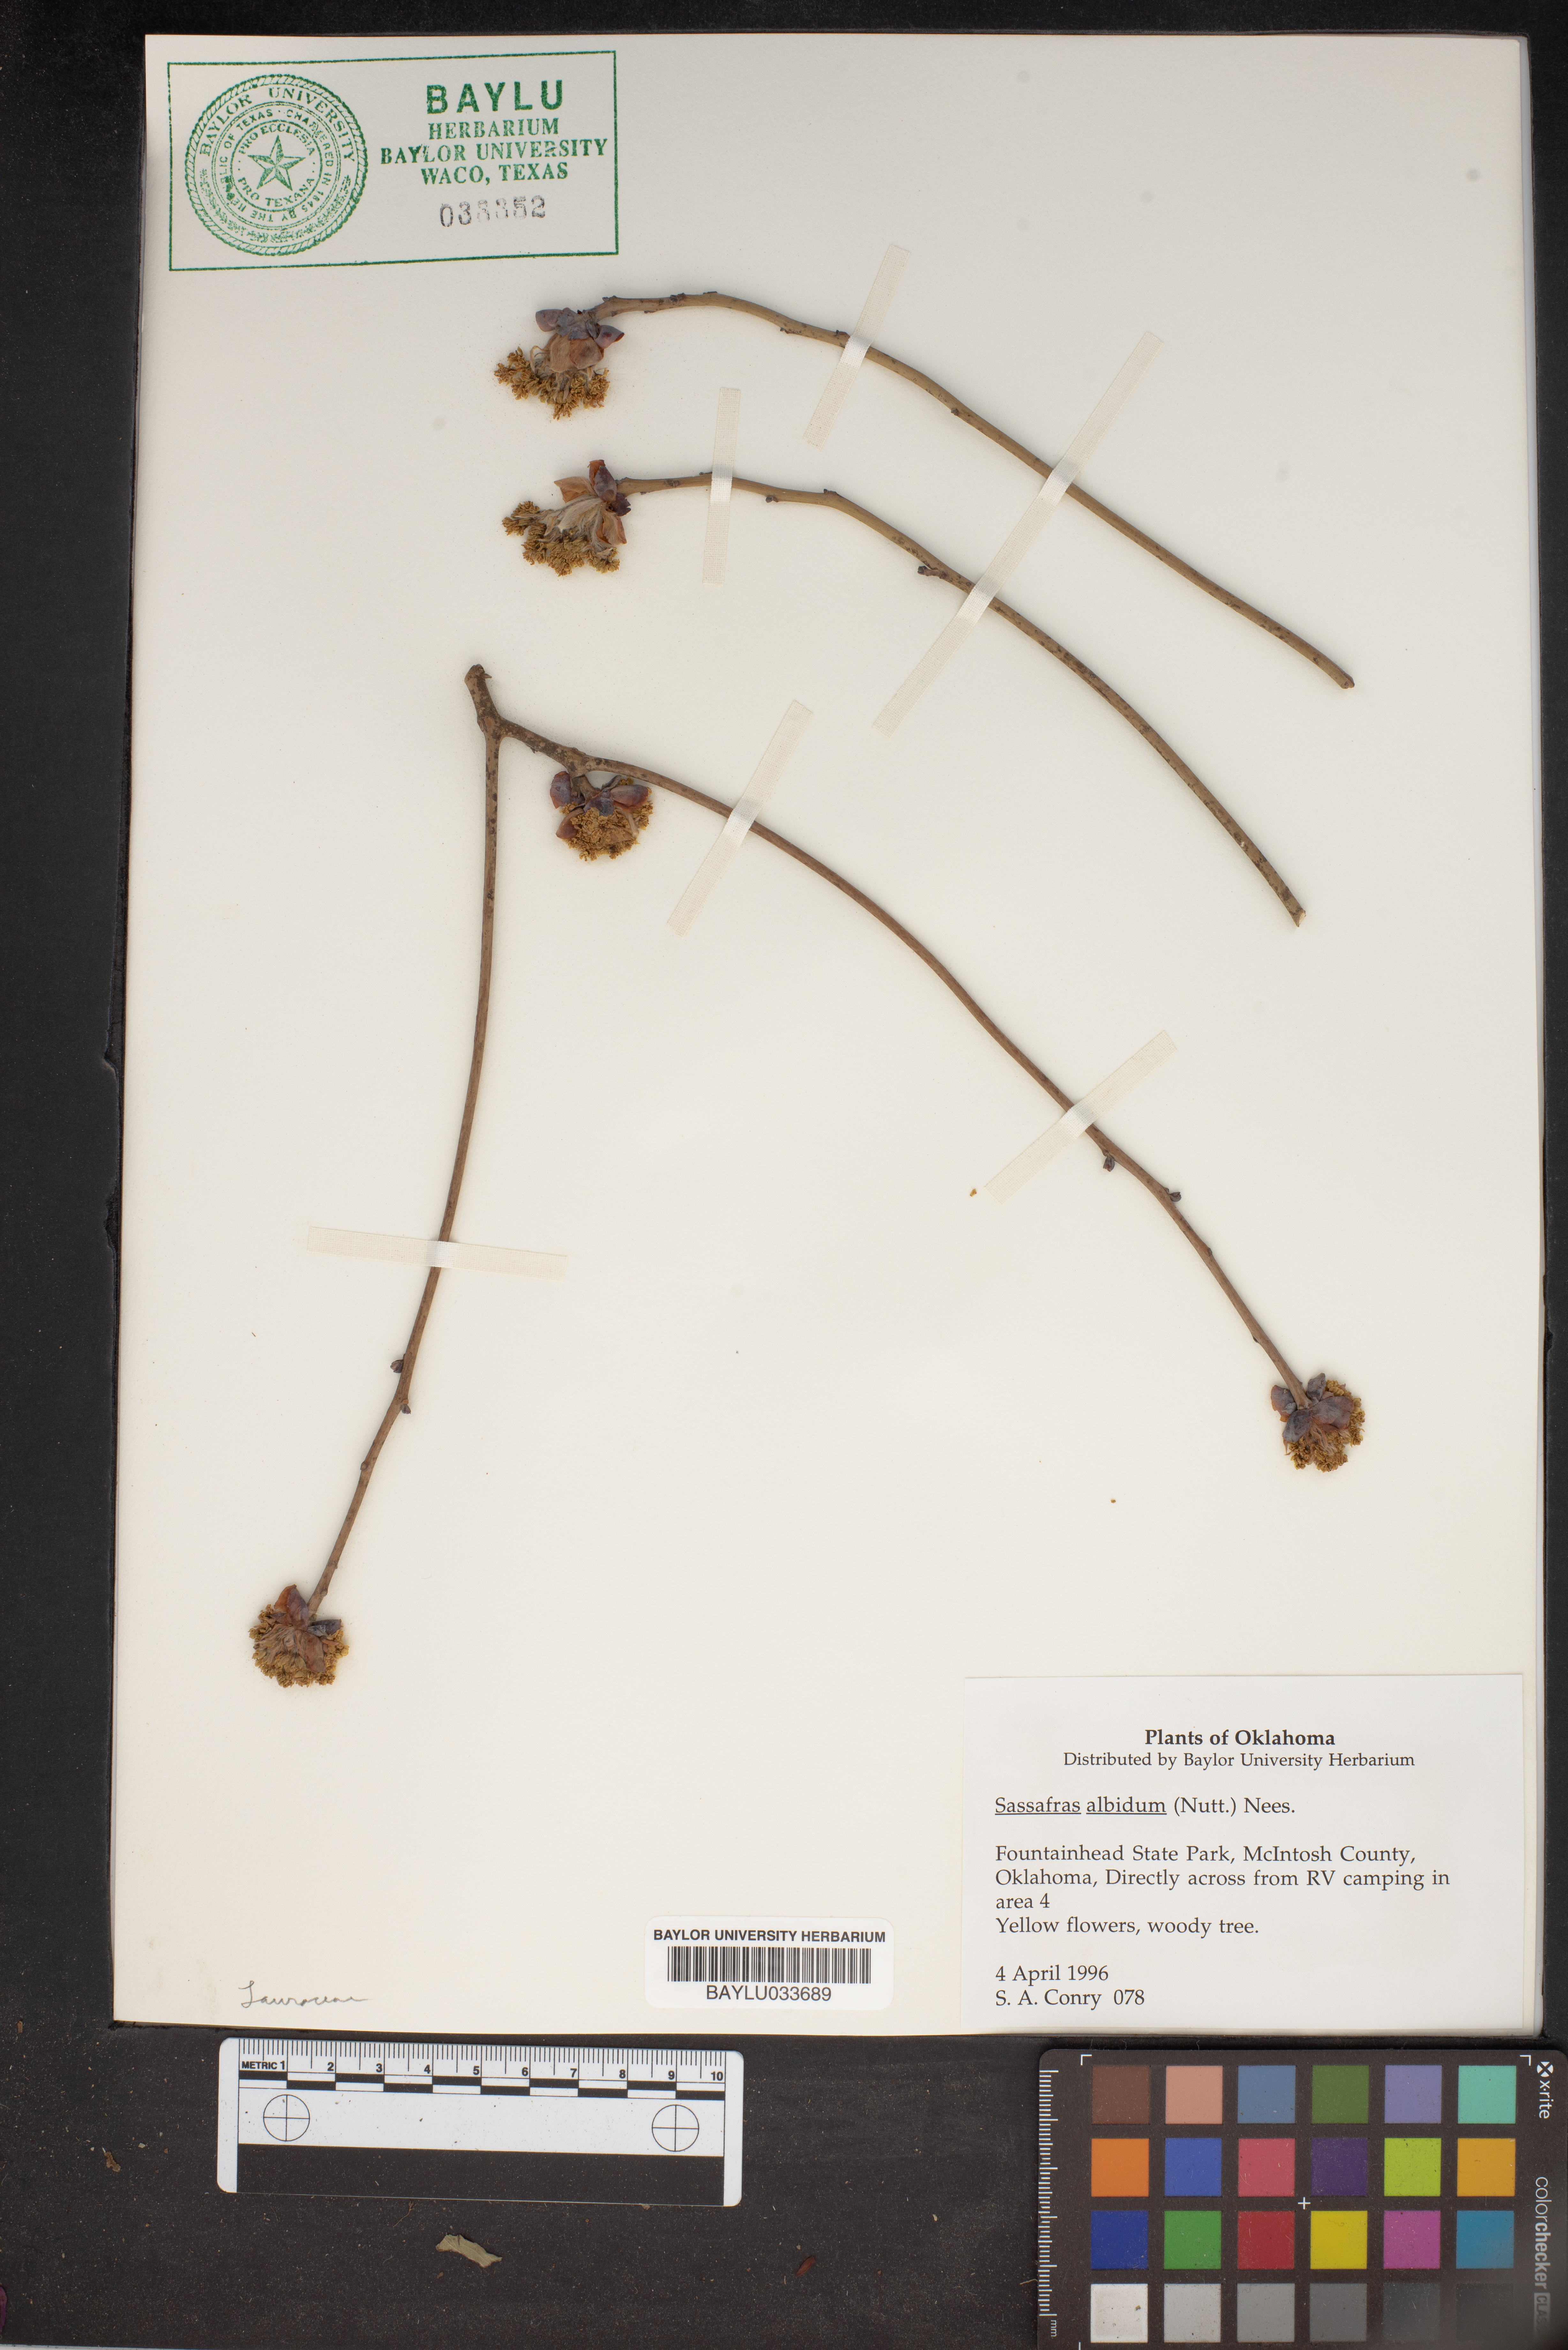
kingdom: Plantae
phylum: Tracheophyta
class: Magnoliopsida
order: Laurales
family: Lauraceae
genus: Sassafras
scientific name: Sassafras albidum
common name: Sassafras
